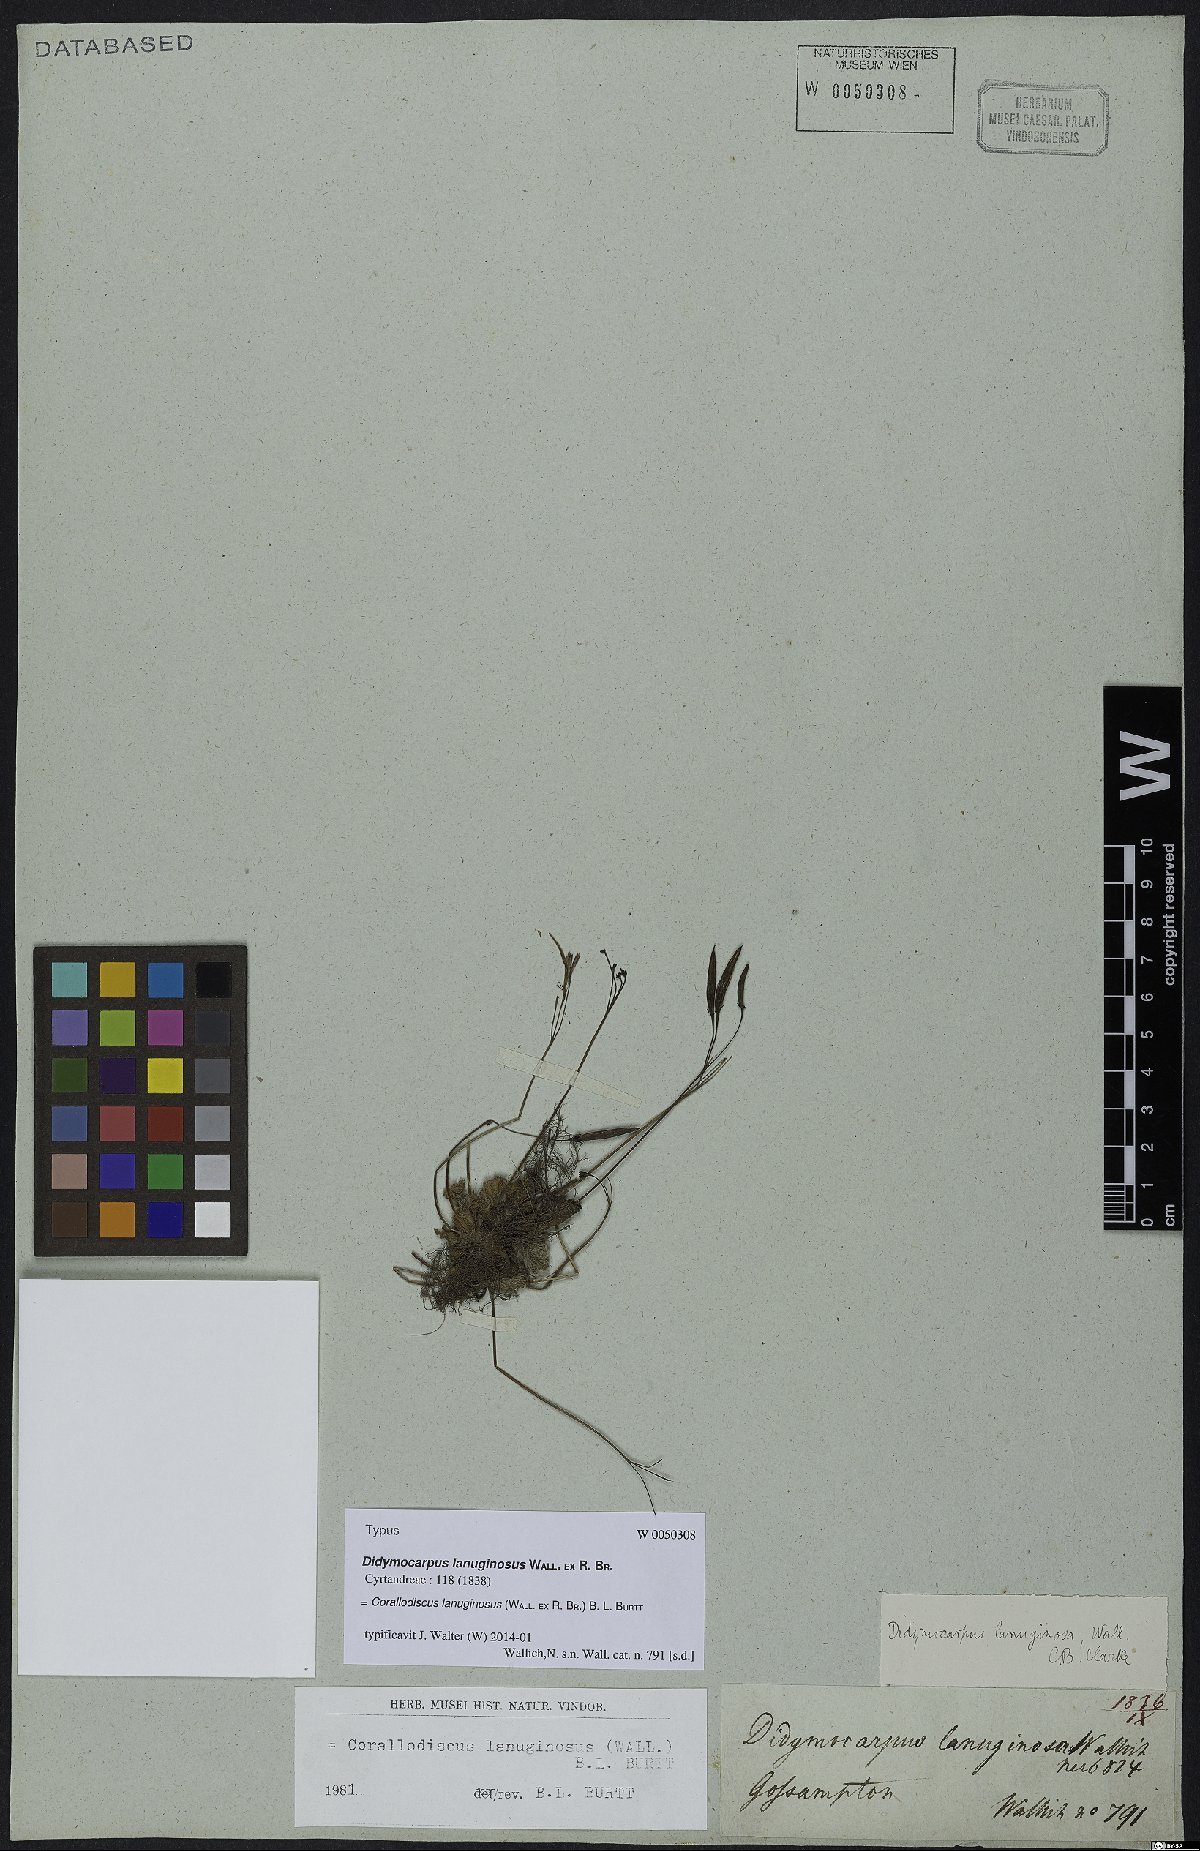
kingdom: Plantae
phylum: Tracheophyta
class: Magnoliopsida
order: Lamiales
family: Gesneriaceae
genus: Corallodiscus
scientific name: Corallodiscus lanuginosus
